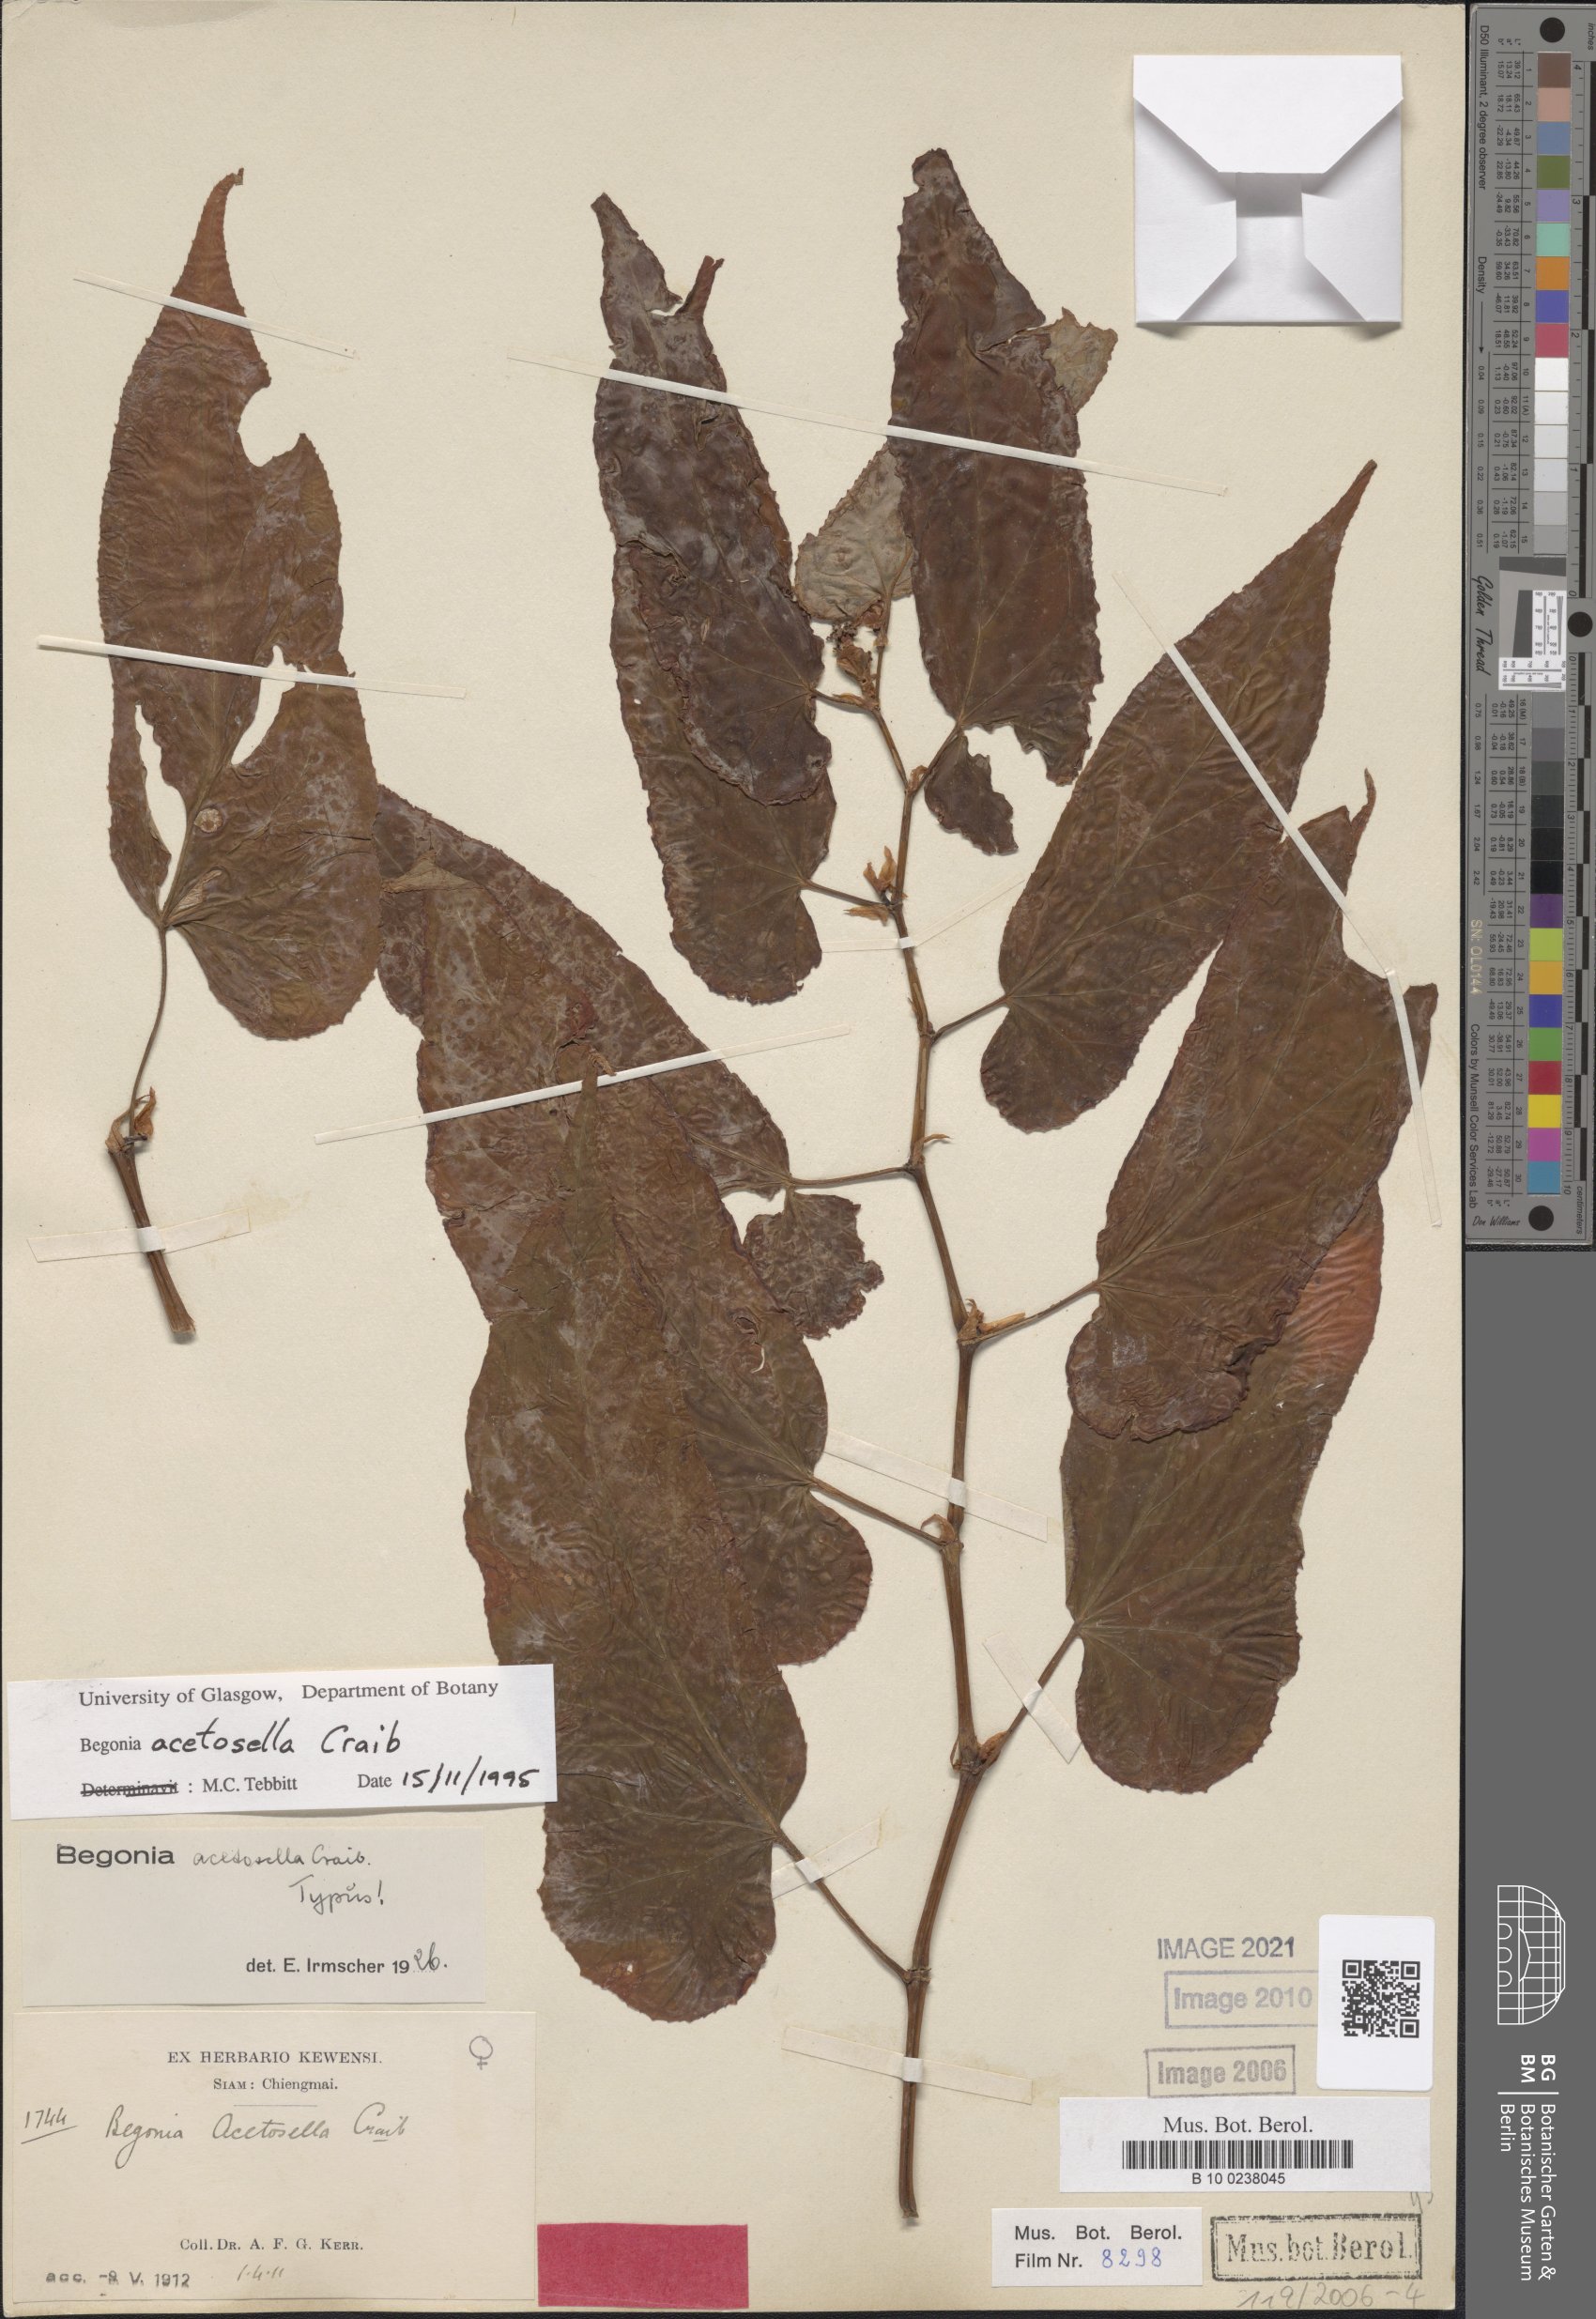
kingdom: Plantae
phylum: Tracheophyta
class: Magnoliopsida
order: Cucurbitales
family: Begoniaceae
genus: Begonia
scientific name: Begonia acetosella
